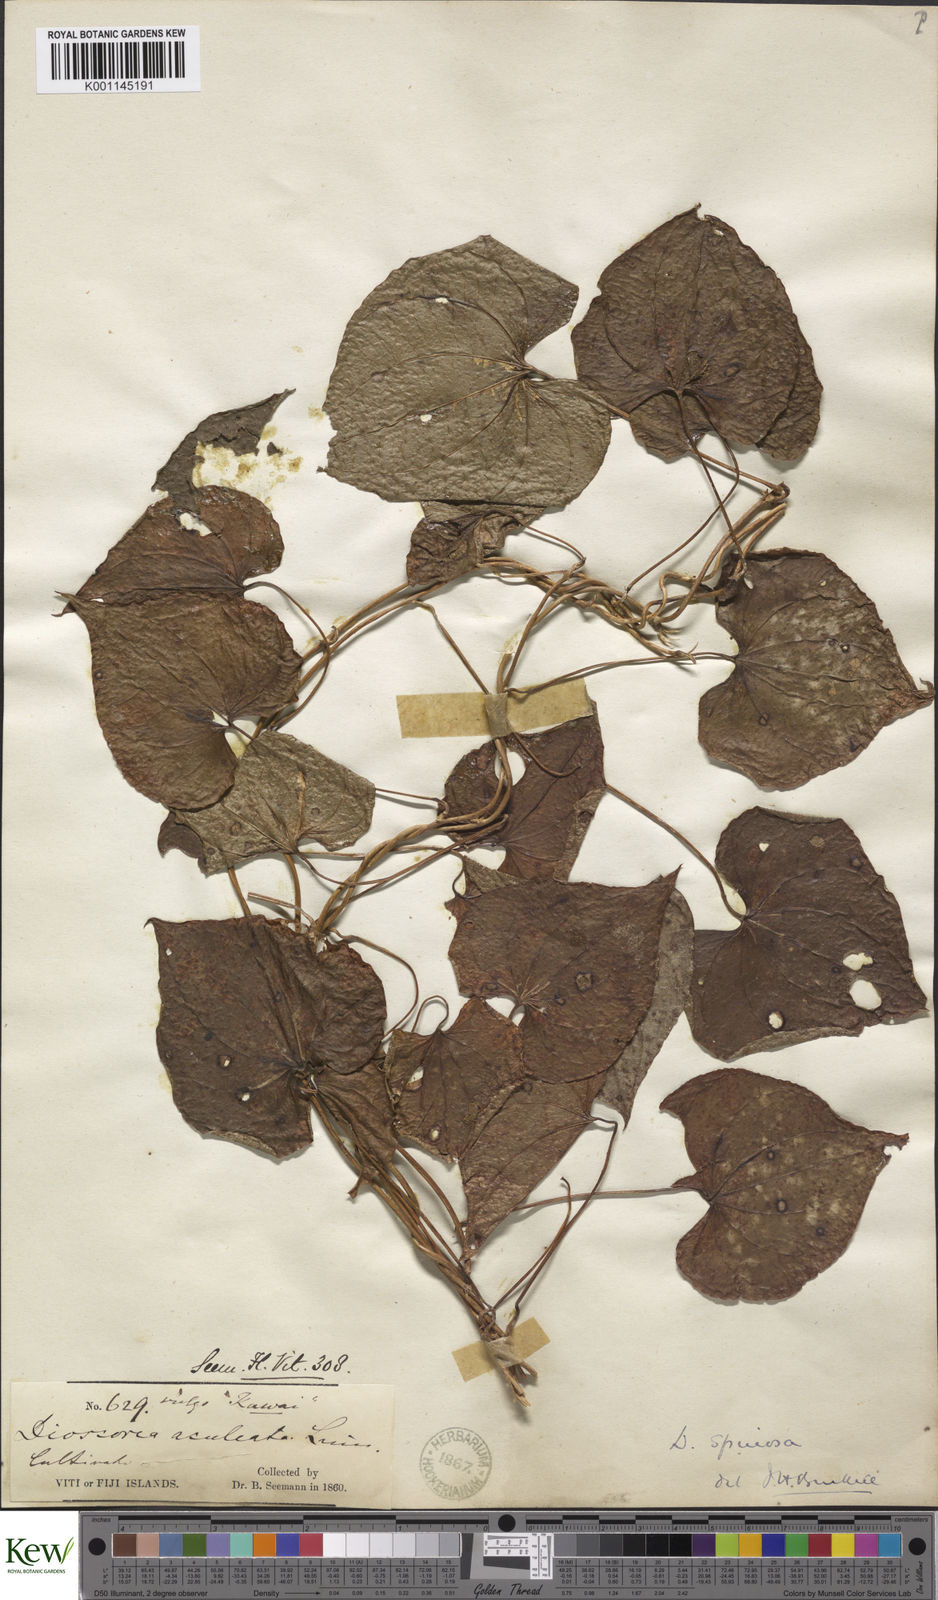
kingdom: Plantae
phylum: Tracheophyta
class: Liliopsida
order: Dioscoreales
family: Dioscoreaceae
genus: Dioscorea
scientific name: Dioscorea esculenta
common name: Chinese yam
